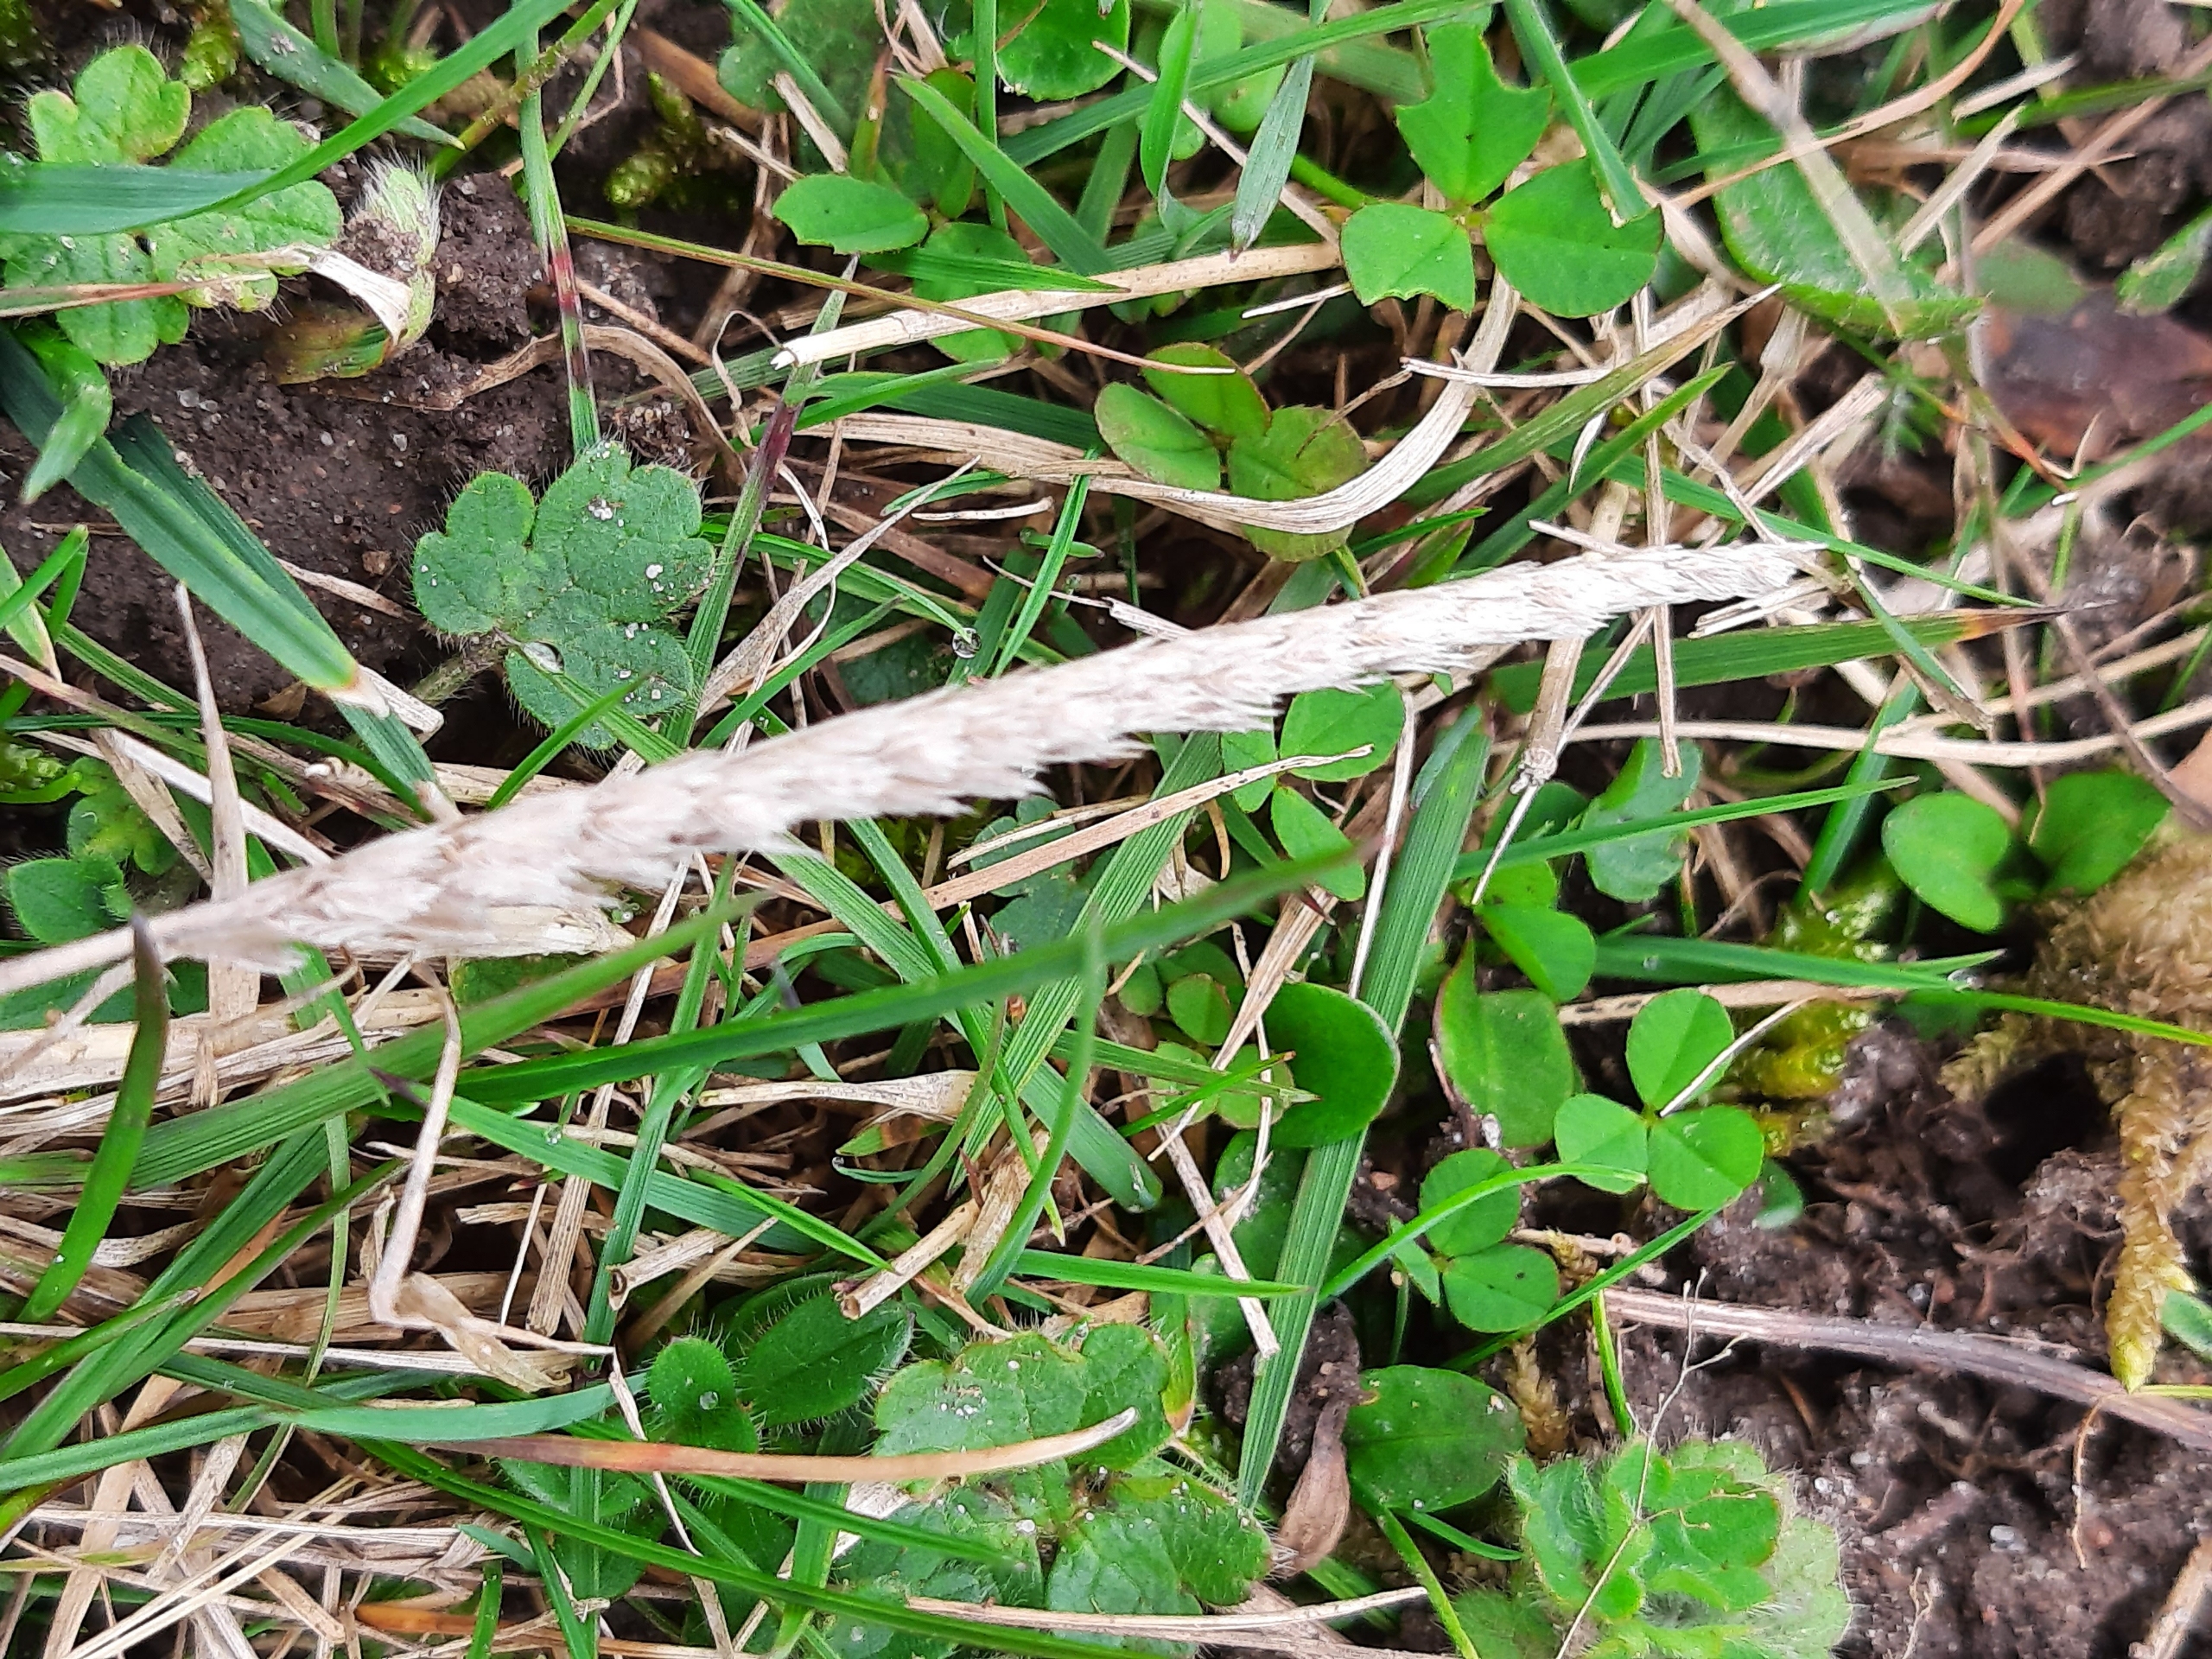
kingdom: Plantae
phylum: Tracheophyta
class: Liliopsida
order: Poales
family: Poaceae
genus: Cynosurus
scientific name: Cynosurus cristatus
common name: Kamgræs
